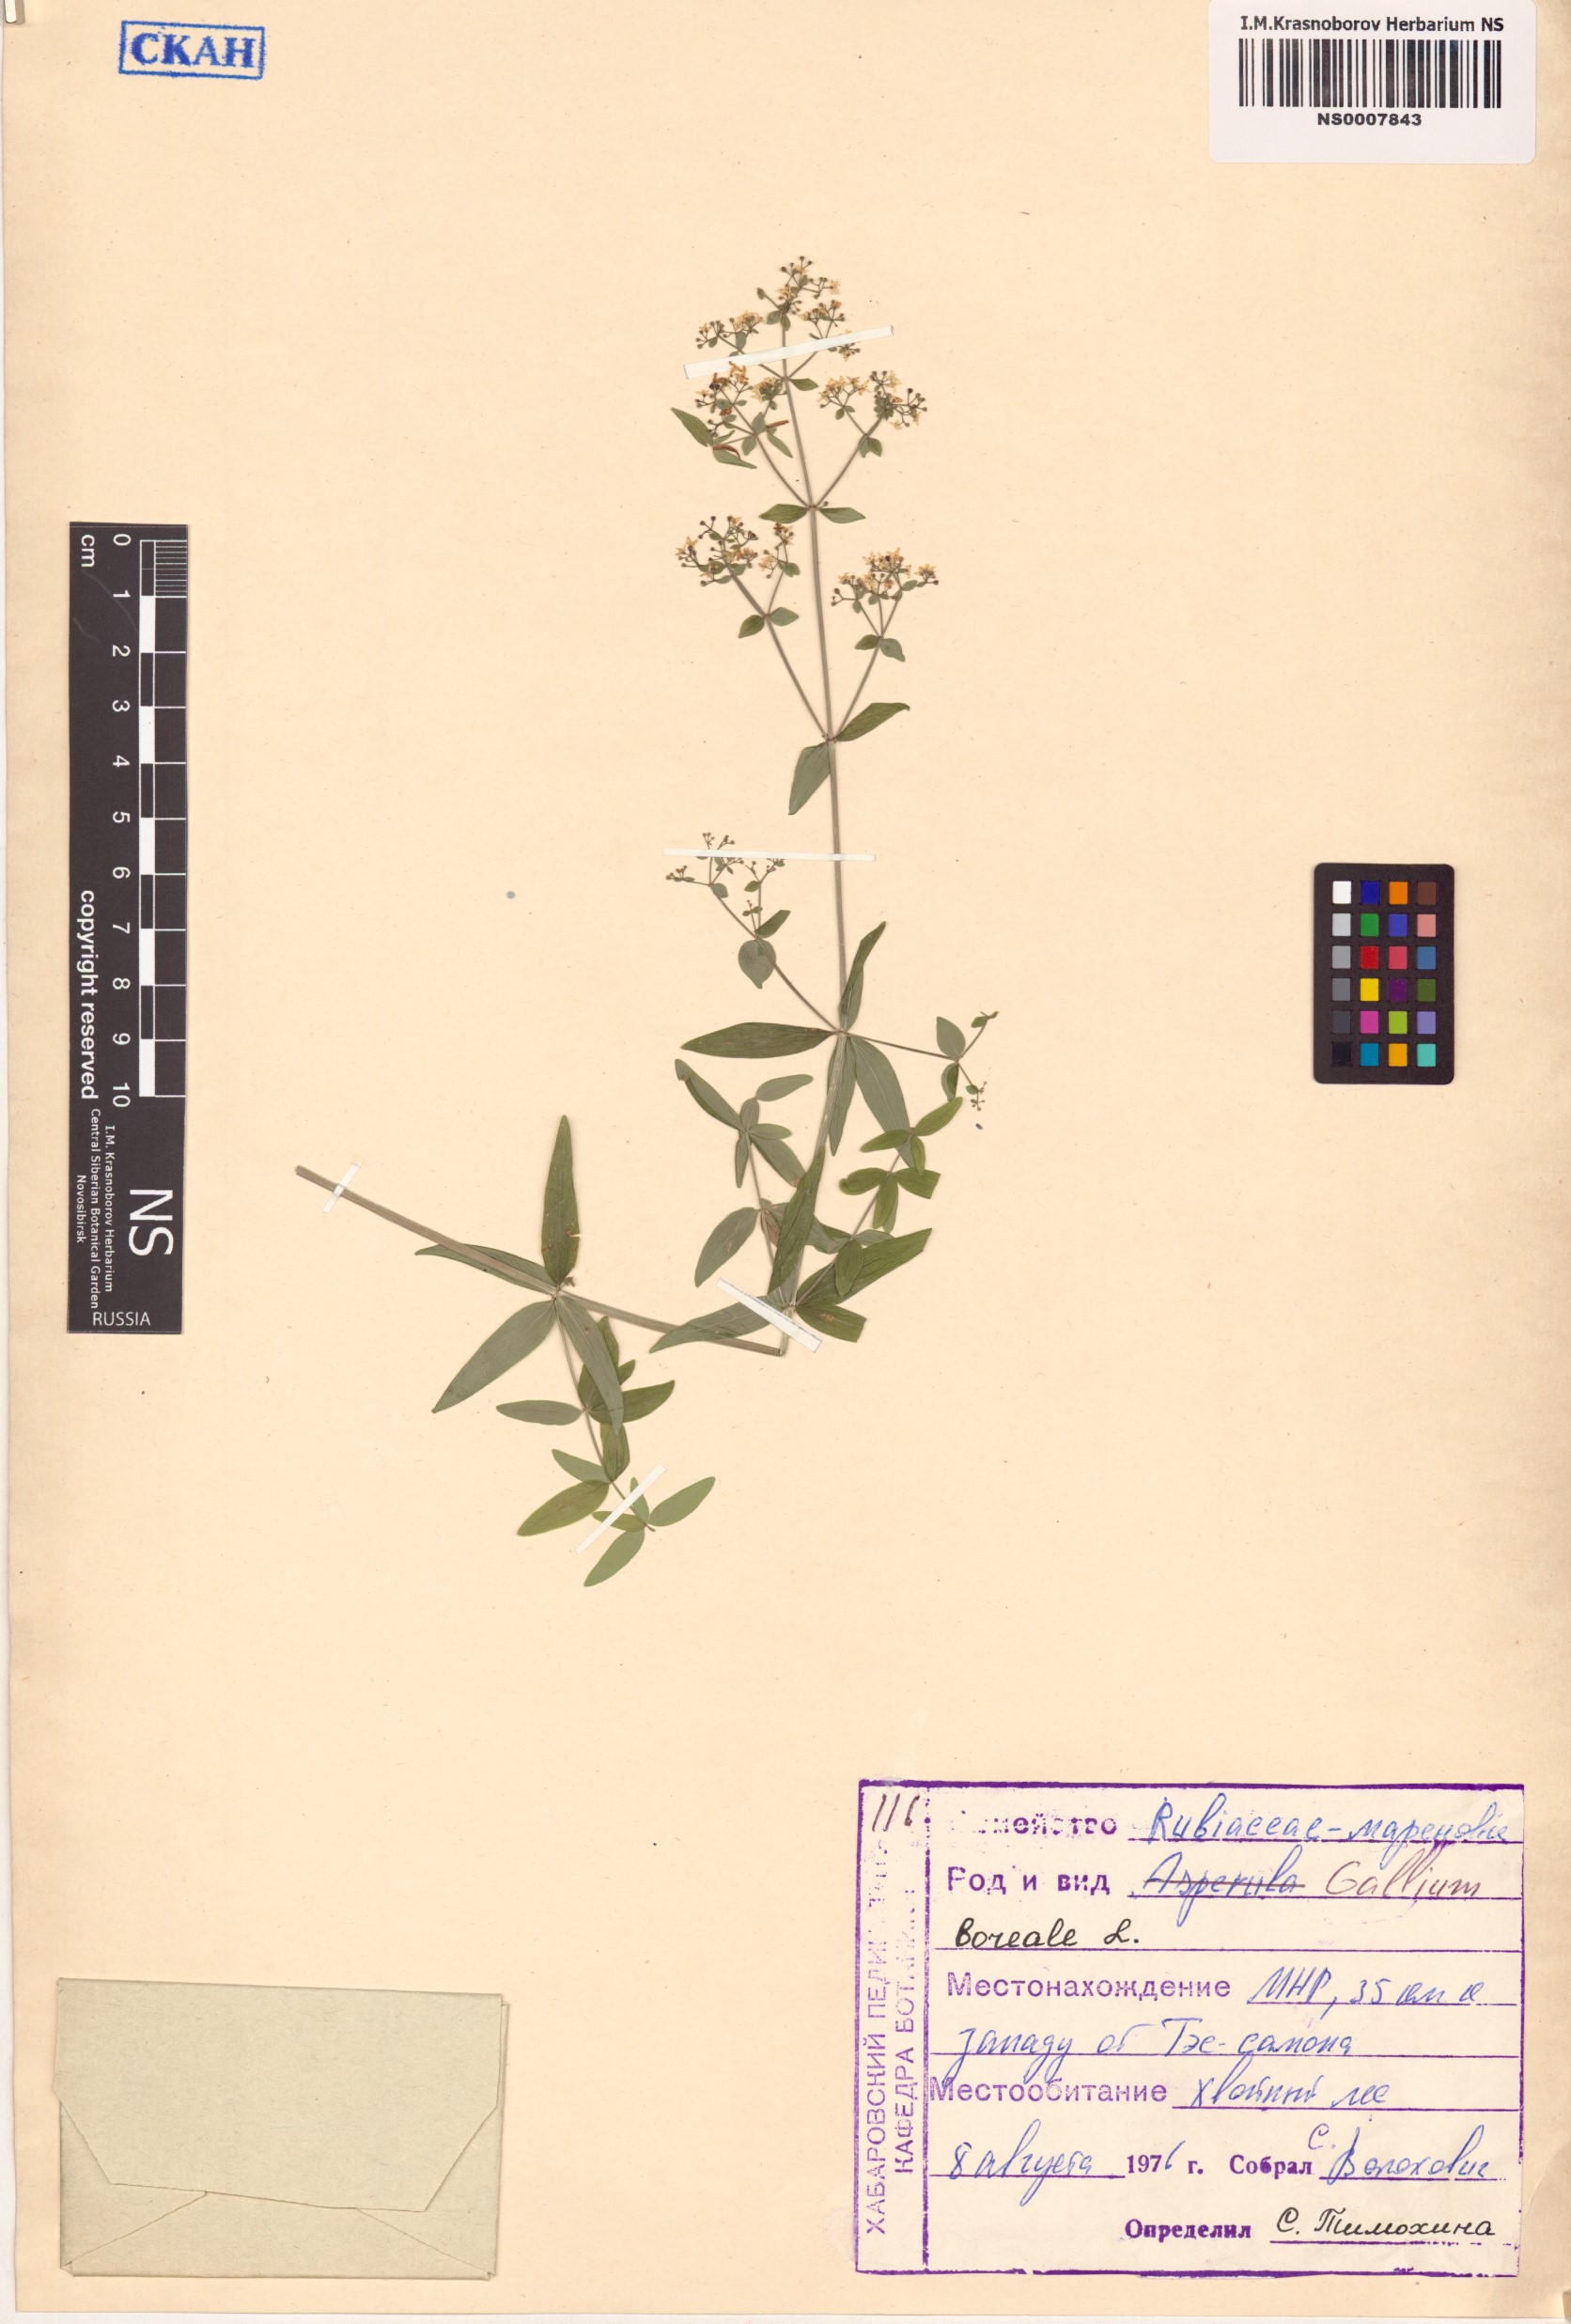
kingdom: Plantae
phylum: Tracheophyta
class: Magnoliopsida
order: Gentianales
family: Rubiaceae
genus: Galium
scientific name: Galium boreale
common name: Northern bedstraw
